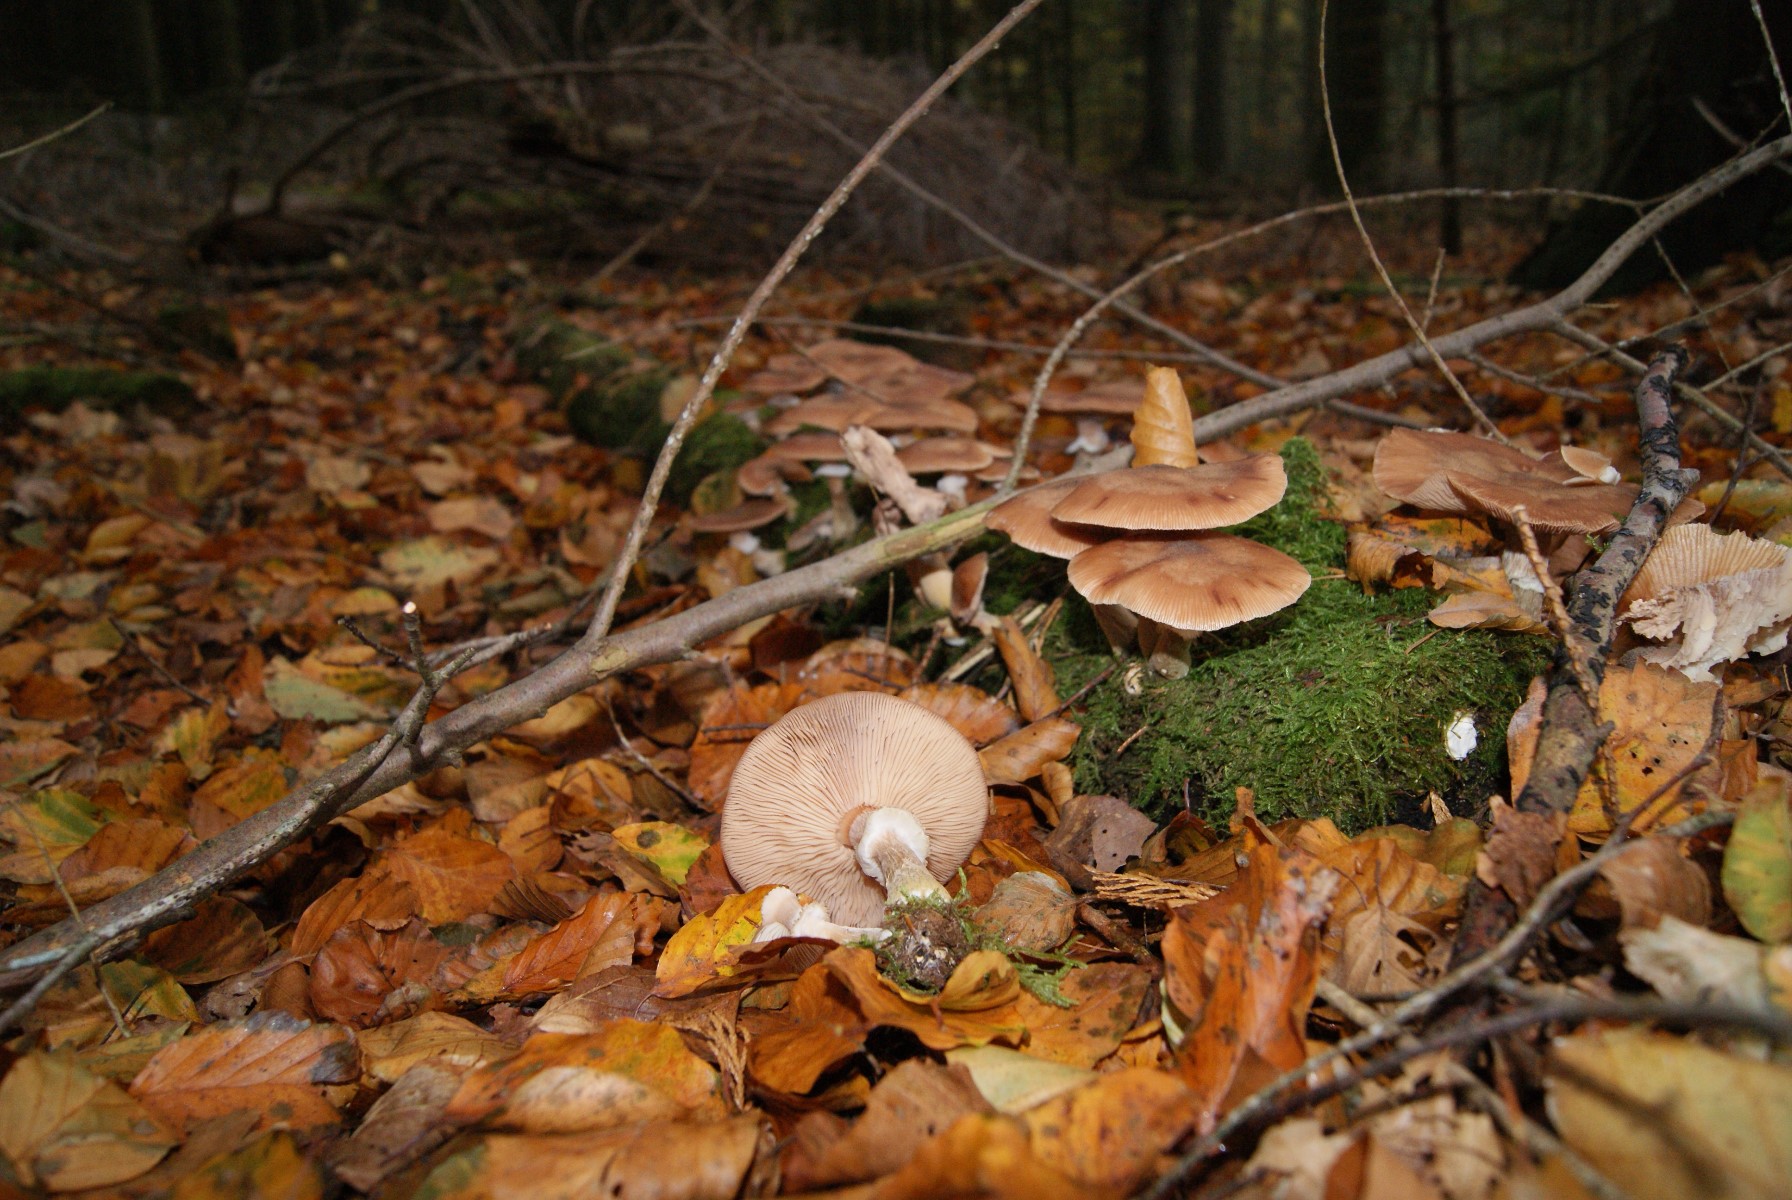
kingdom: Fungi
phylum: Basidiomycota
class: Agaricomycetes
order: Agaricales
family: Physalacriaceae
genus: Armillaria
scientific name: Armillaria lutea
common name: køllestokket honningsvamp
